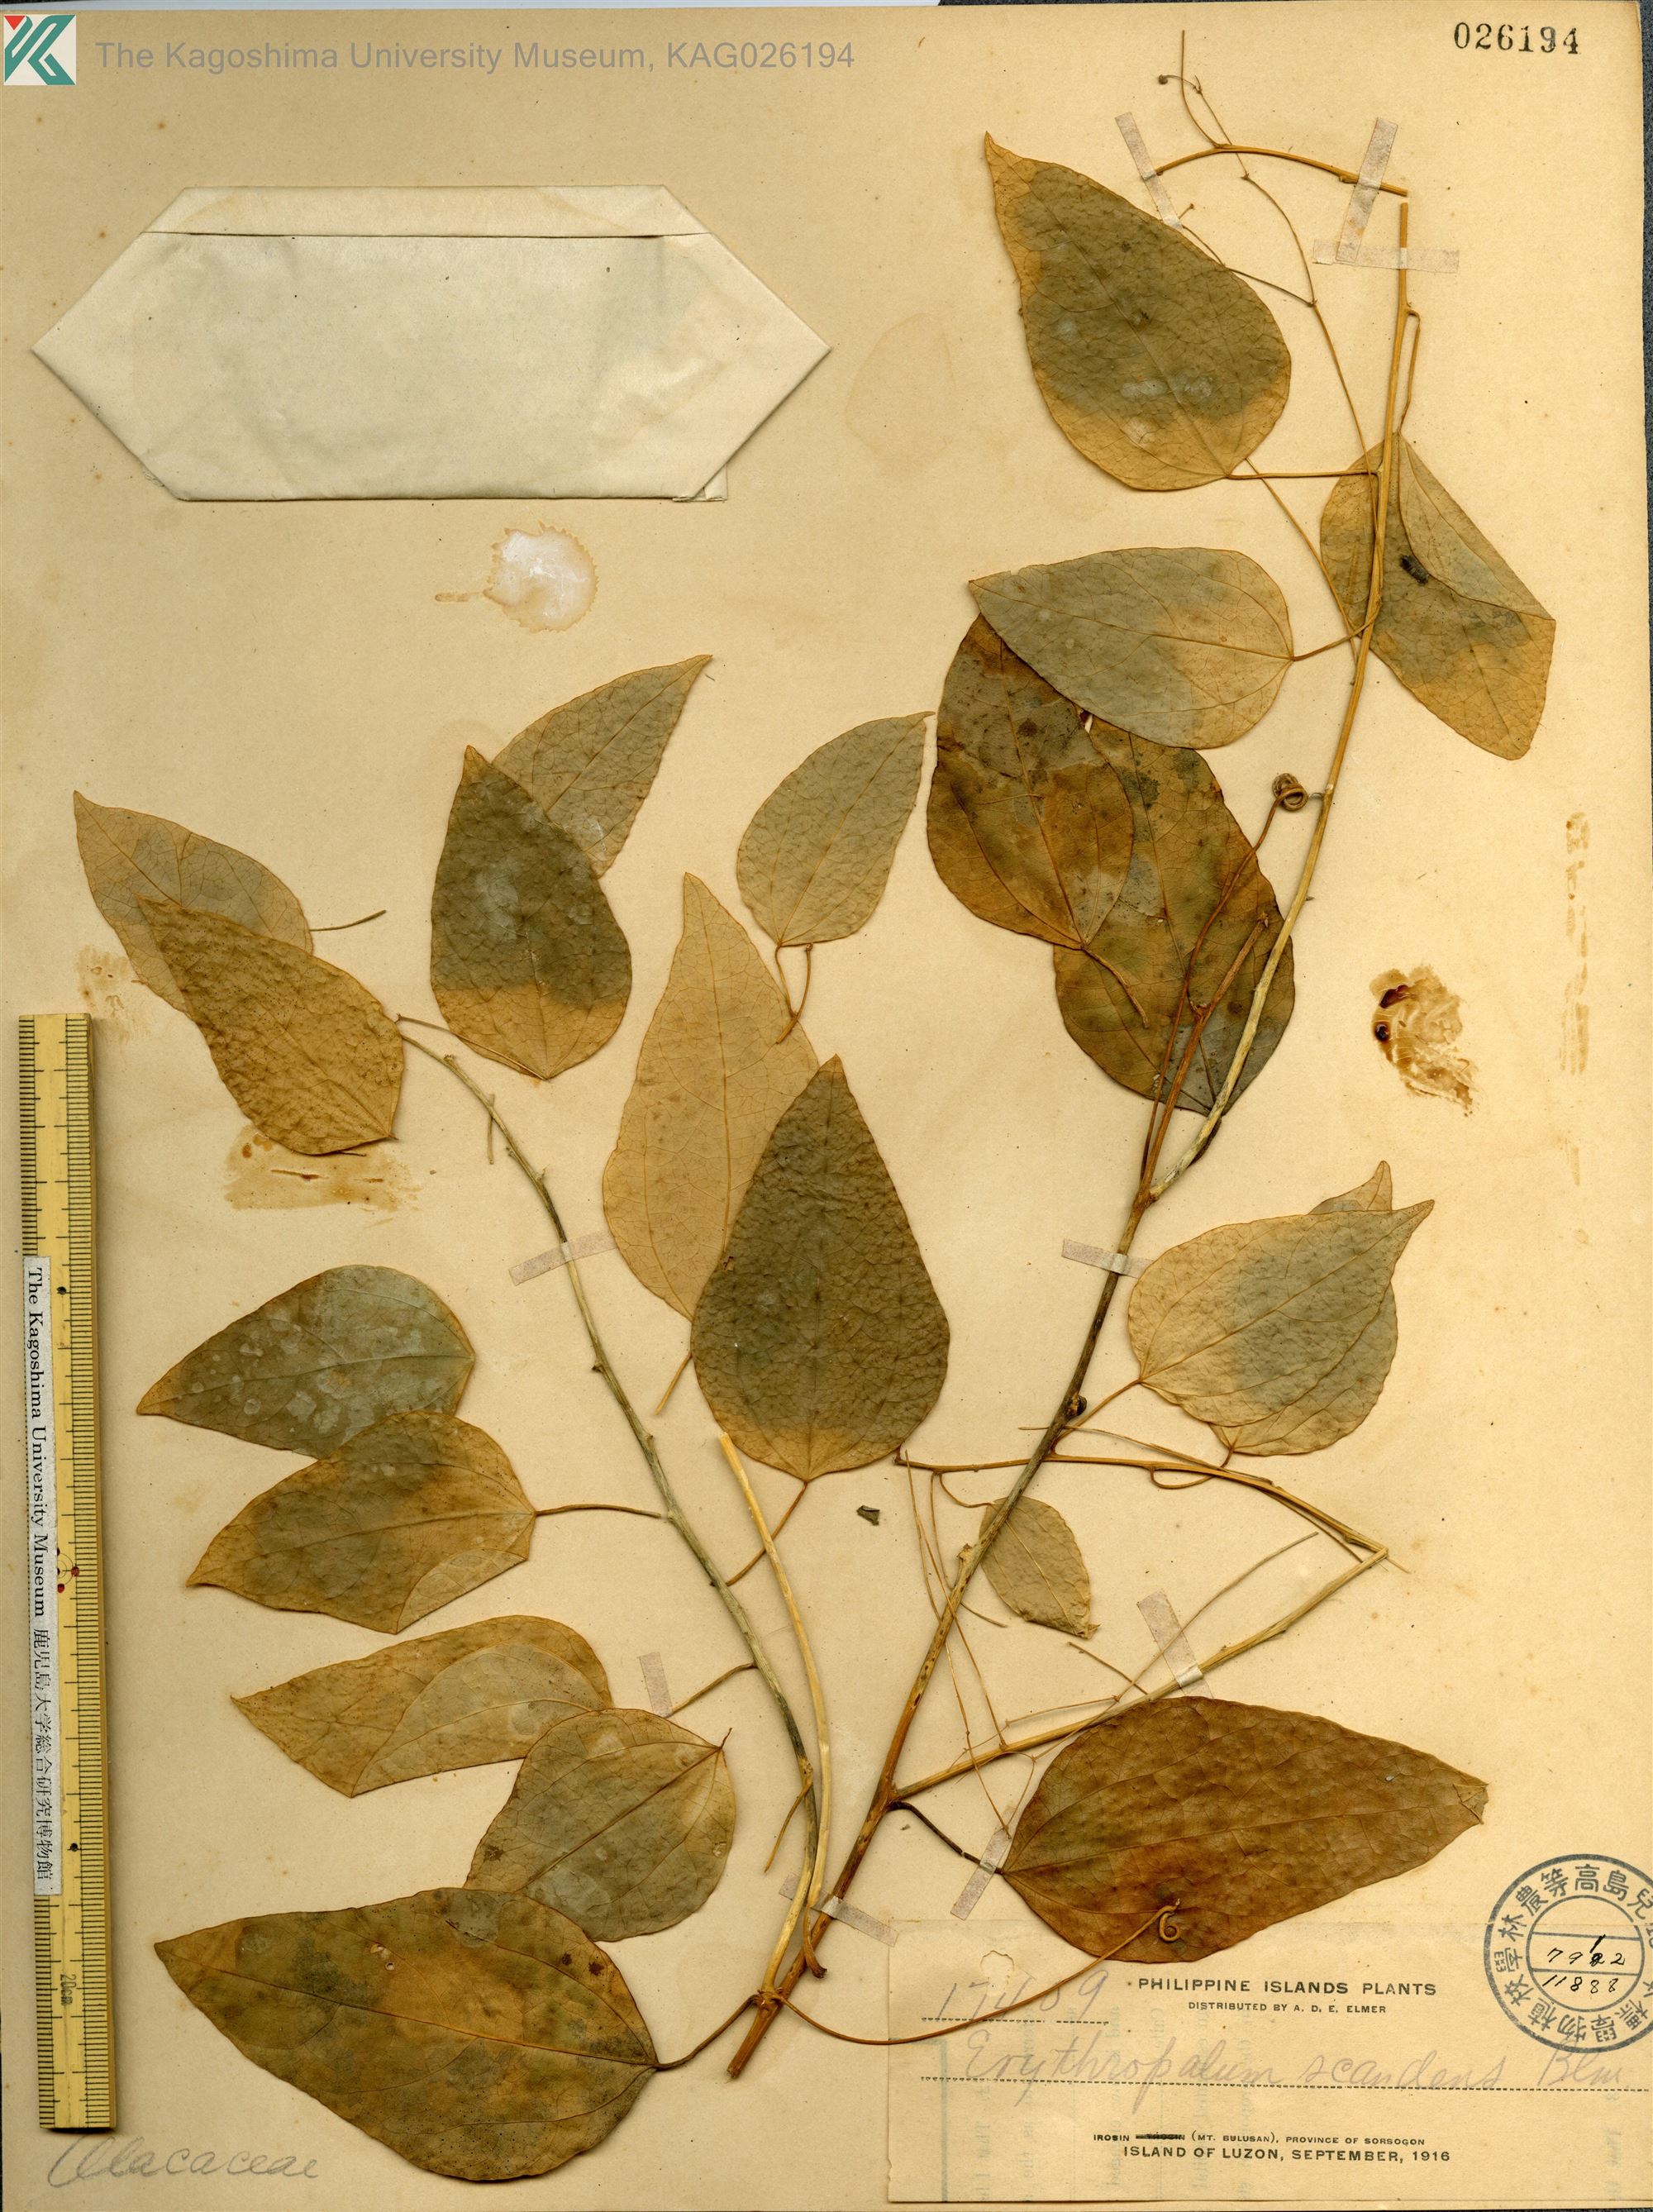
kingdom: Plantae
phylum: Tracheophyta
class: Magnoliopsida
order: Santalales
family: Erythropalaceae
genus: Erythropalum
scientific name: Erythropalum scandens
